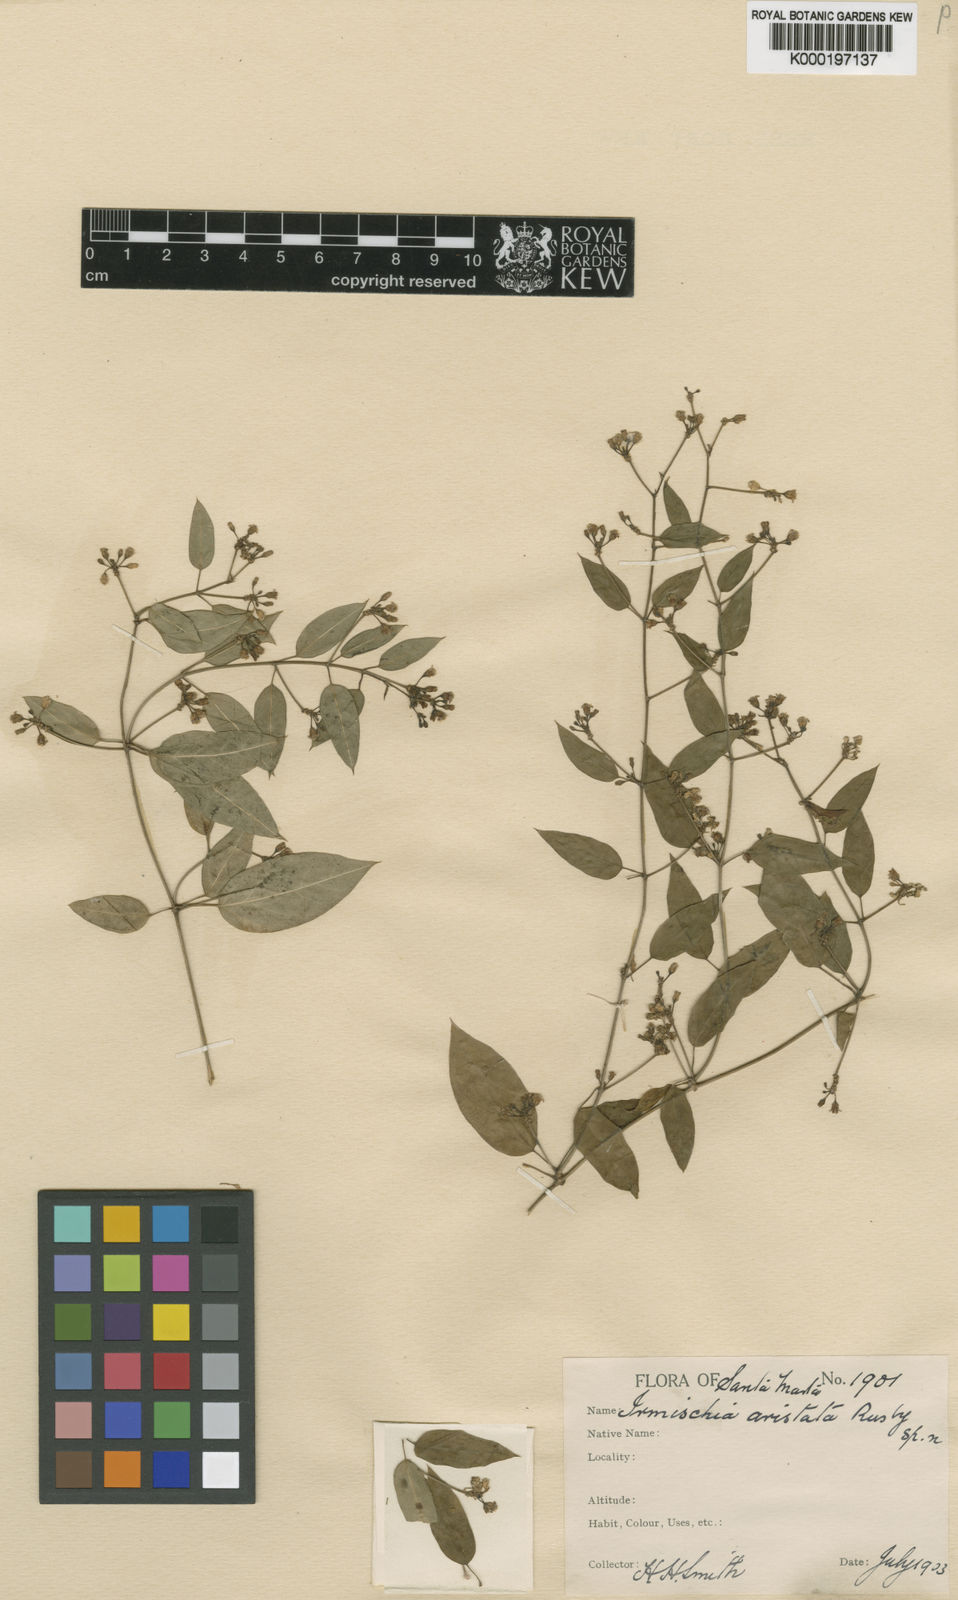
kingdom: Plantae
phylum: Tracheophyta
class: Magnoliopsida
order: Gentianales
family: Apocynaceae
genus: Metastelma
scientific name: Metastelma parviflorum
